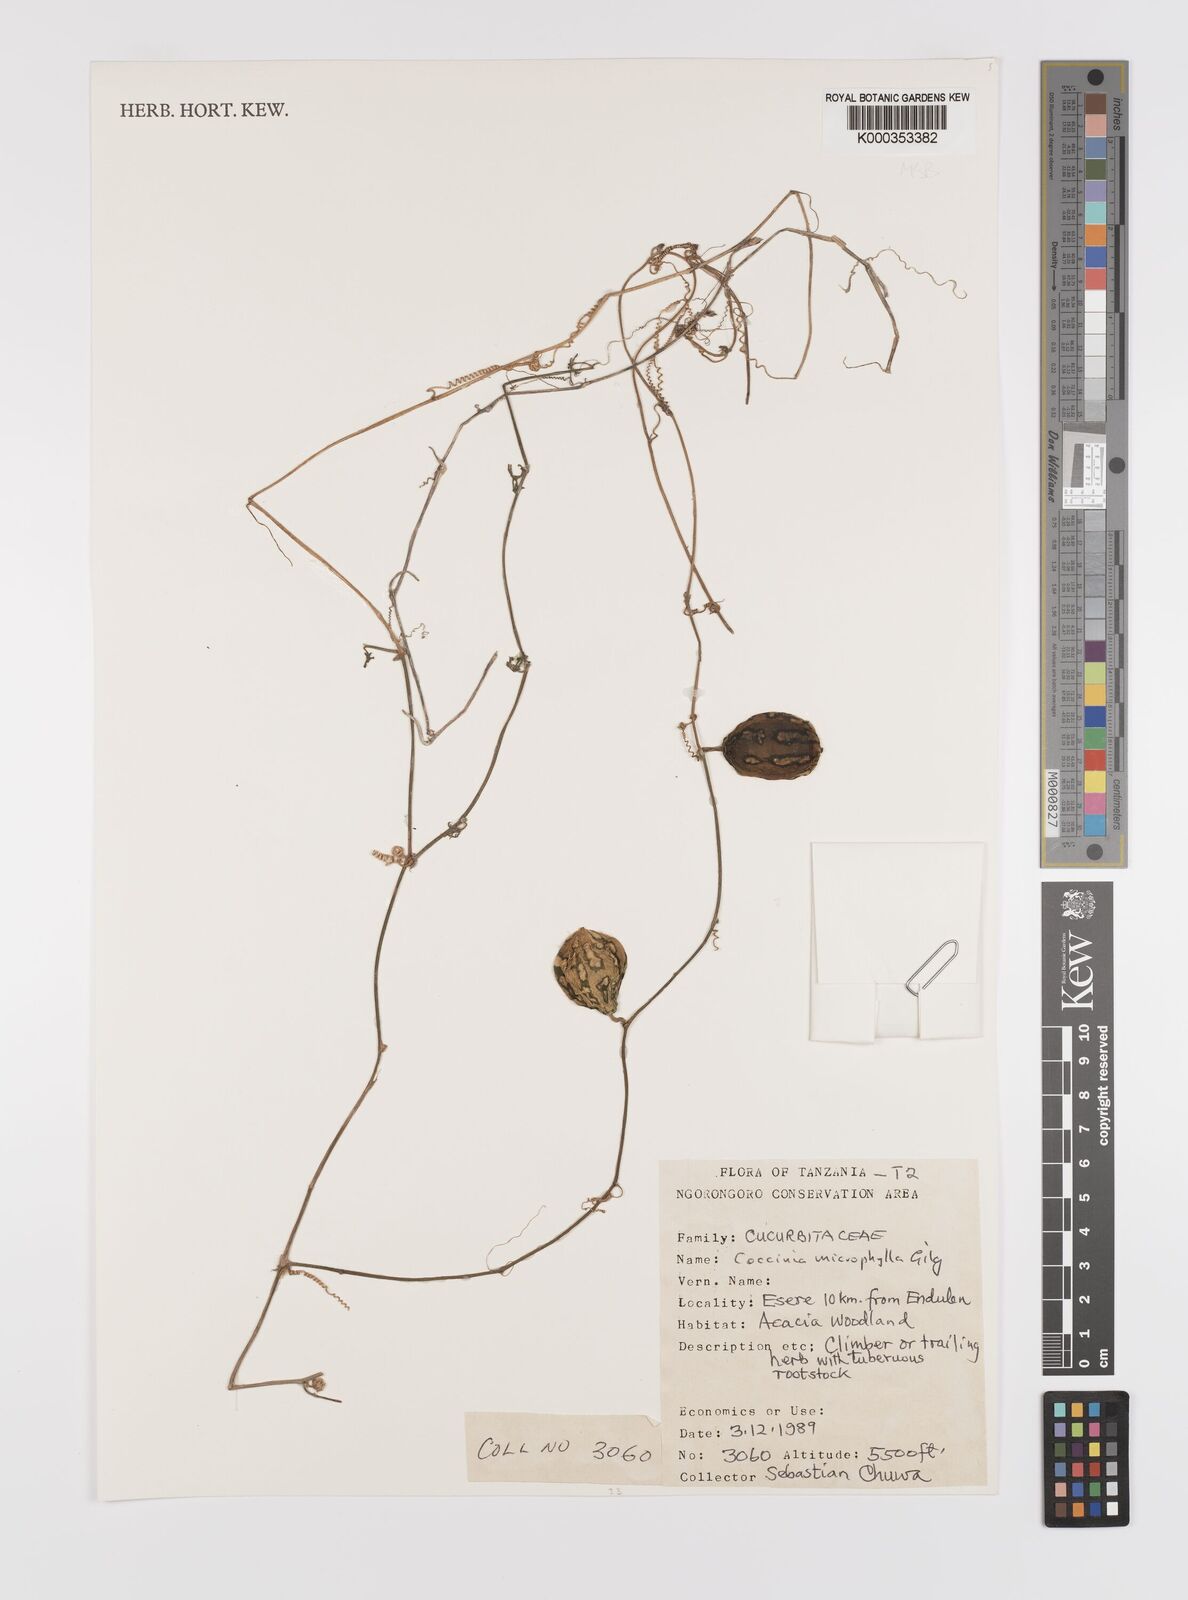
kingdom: Plantae
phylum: Tracheophyta
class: Magnoliopsida
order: Cucurbitales
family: Cucurbitaceae
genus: Coccinia
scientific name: Coccinia microphylla
